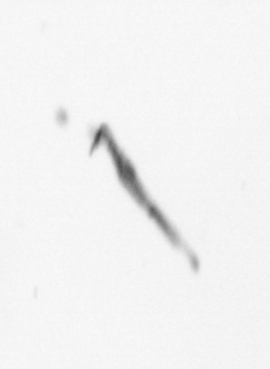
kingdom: Chromista
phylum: Ochrophyta
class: Bacillariophyceae
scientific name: Bacillariophyceae
